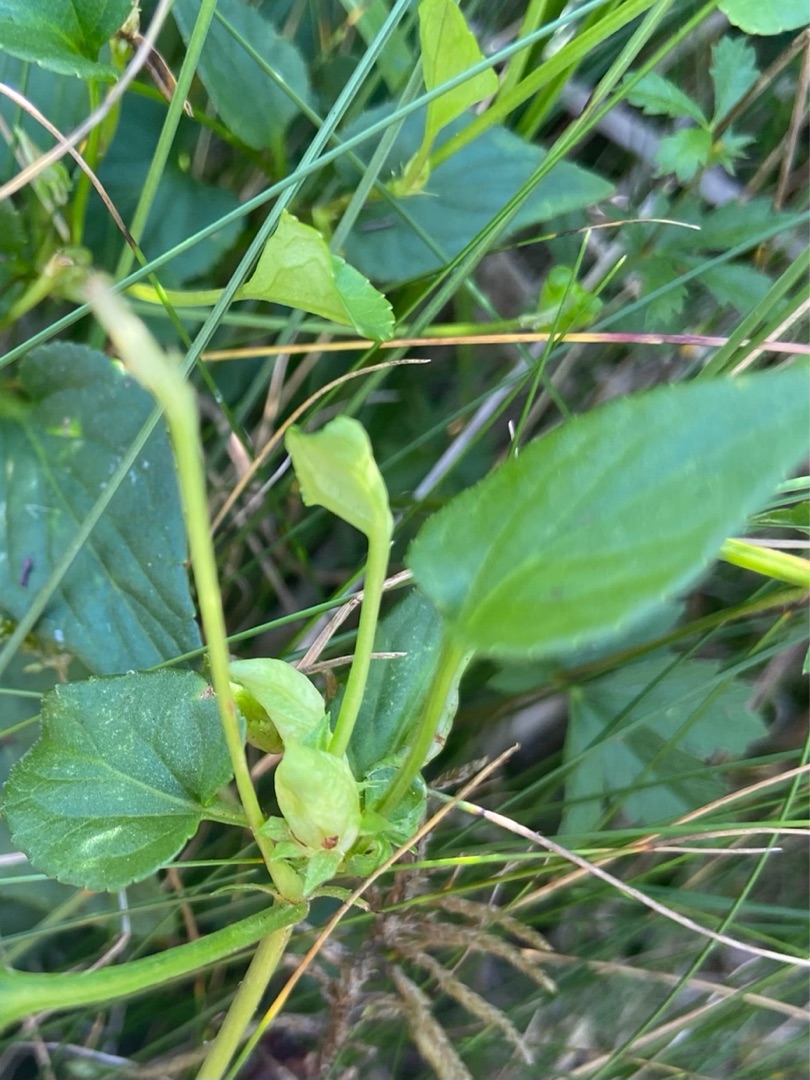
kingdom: Animalia
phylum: Arthropoda
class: Insecta
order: Diptera
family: Cecidomyiidae
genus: Dasineura
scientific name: Dasineura affinis
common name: Violgalmyg
